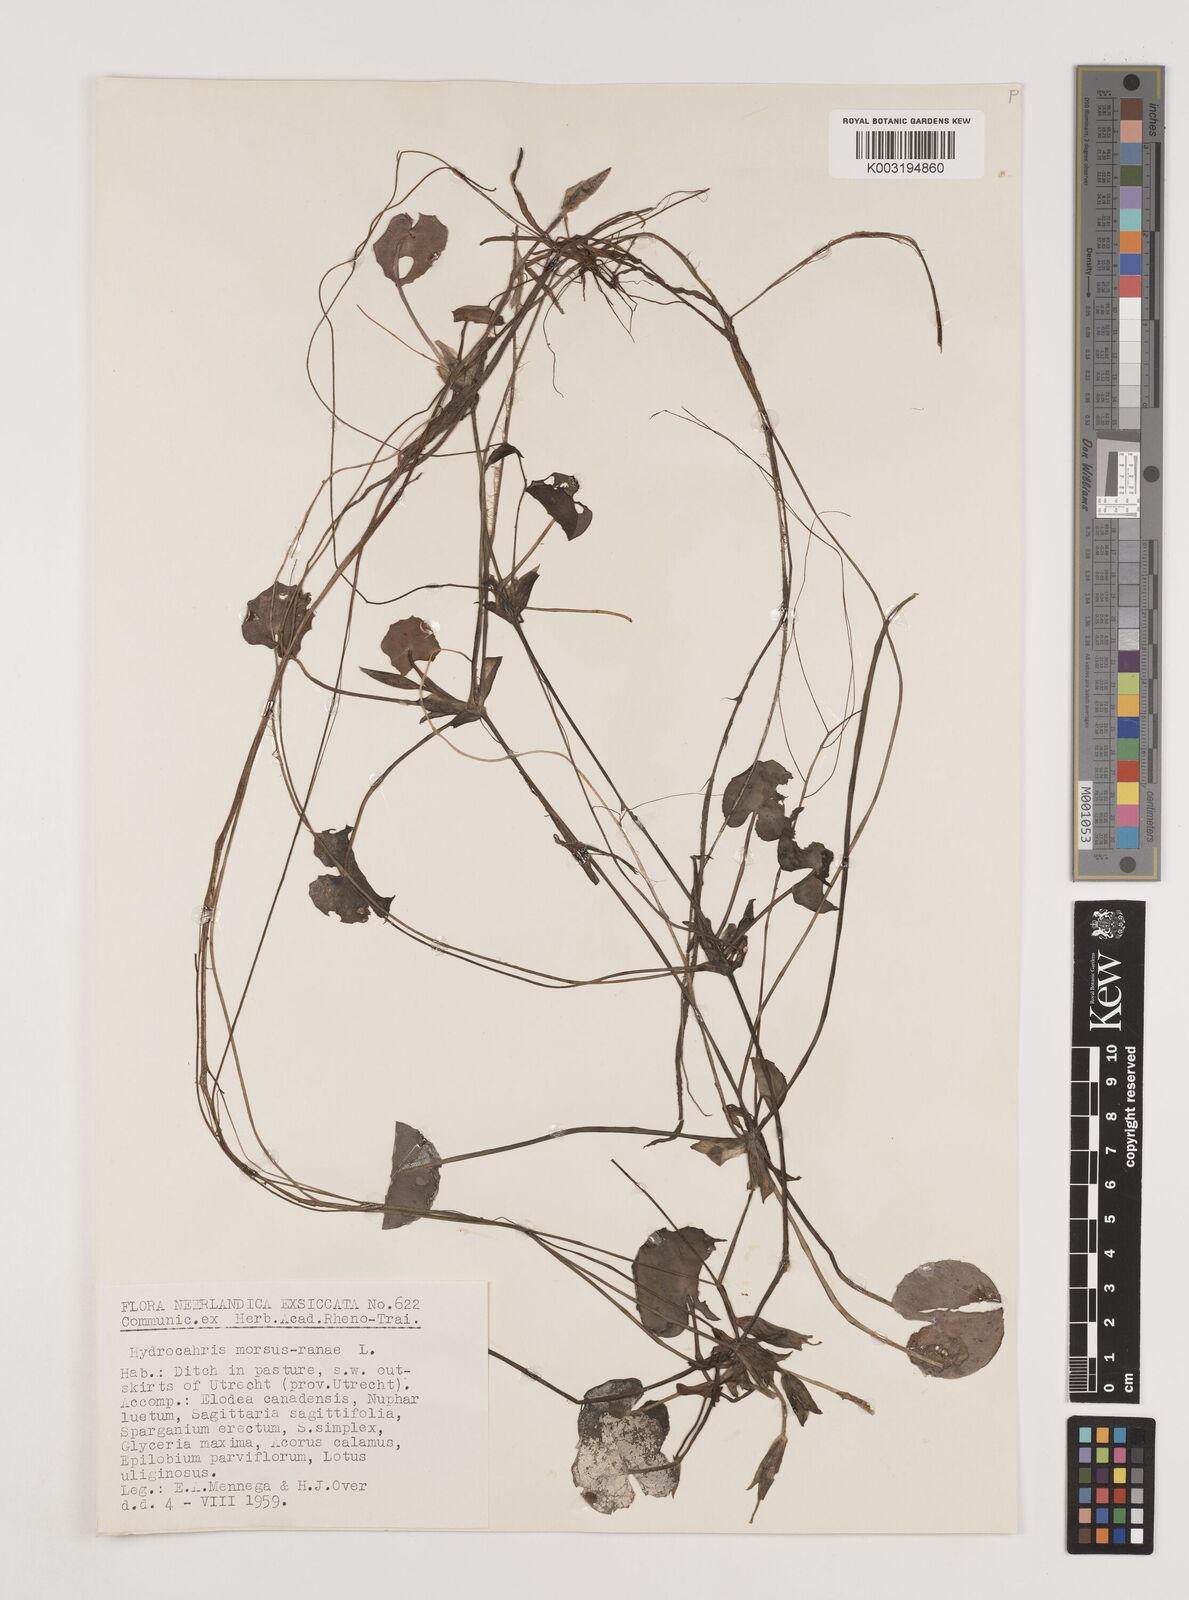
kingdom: Plantae
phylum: Tracheophyta
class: Liliopsida
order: Alismatales
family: Hydrocharitaceae
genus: Hydrocharis
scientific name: Hydrocharis morsus-ranae
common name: Frogbit
